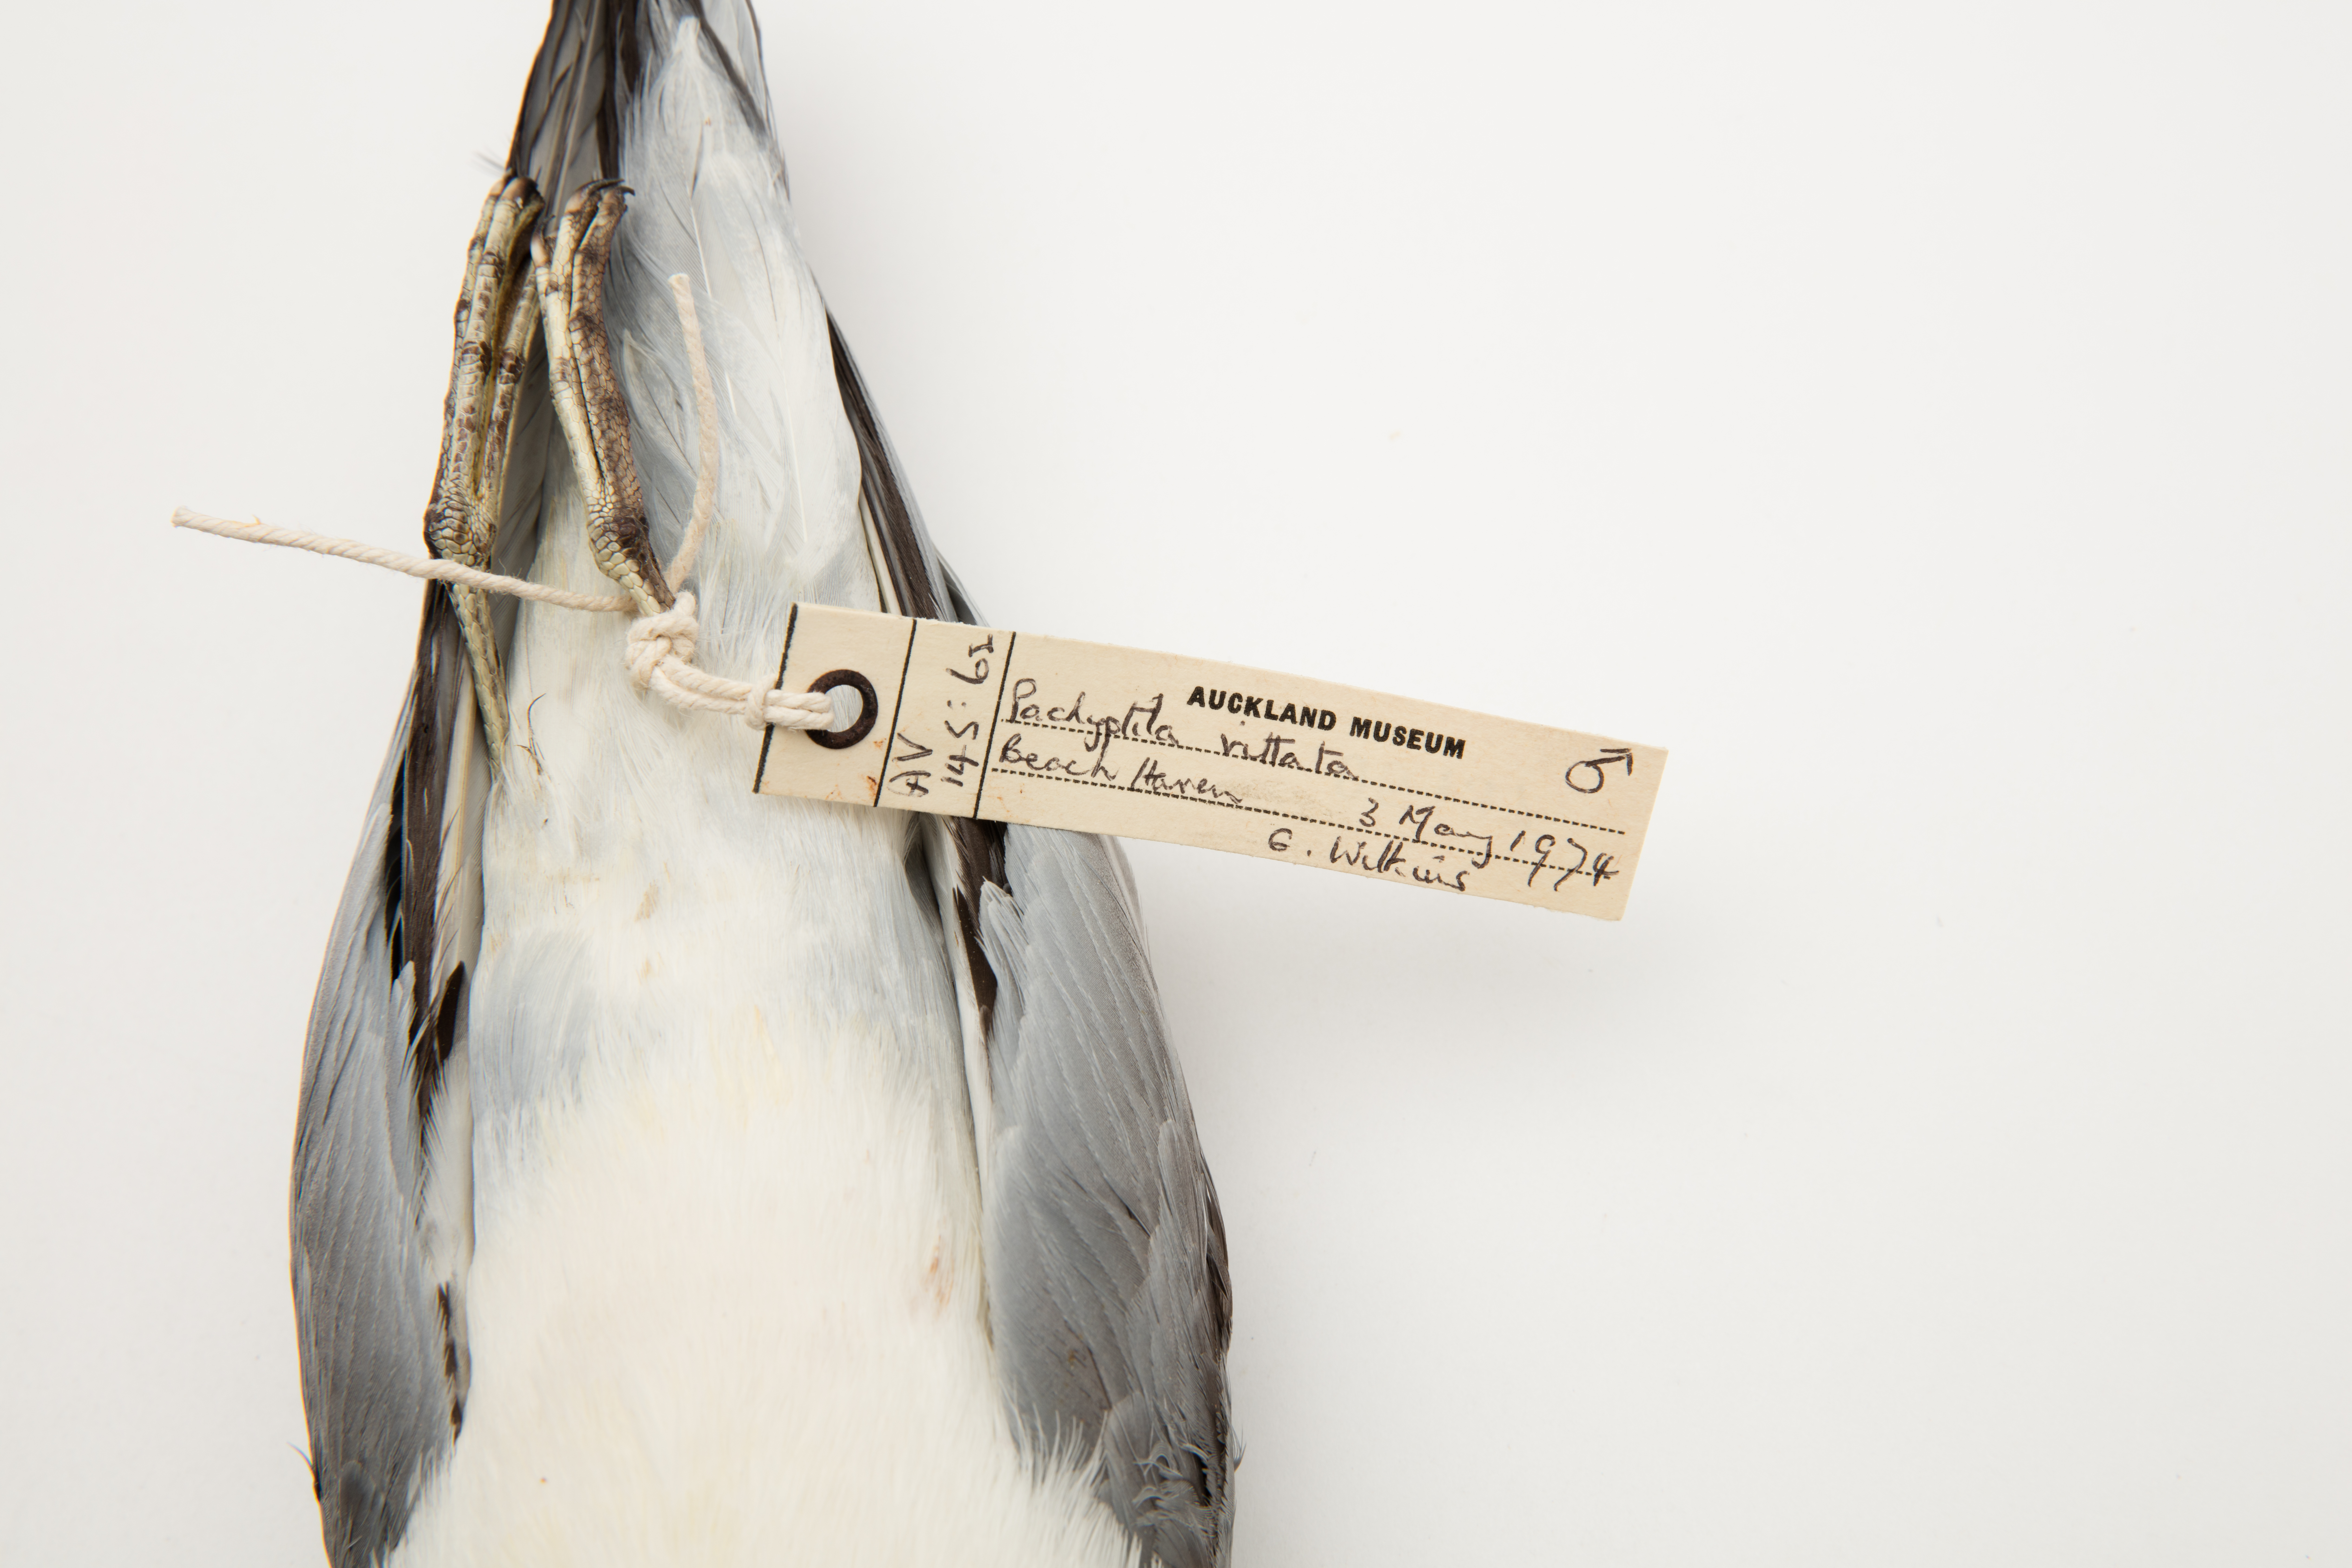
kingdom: Animalia
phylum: Chordata
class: Aves
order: Procellariiformes
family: Procellariidae
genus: Pachyptila
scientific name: Pachyptila vittata
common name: Broad-billed prion
